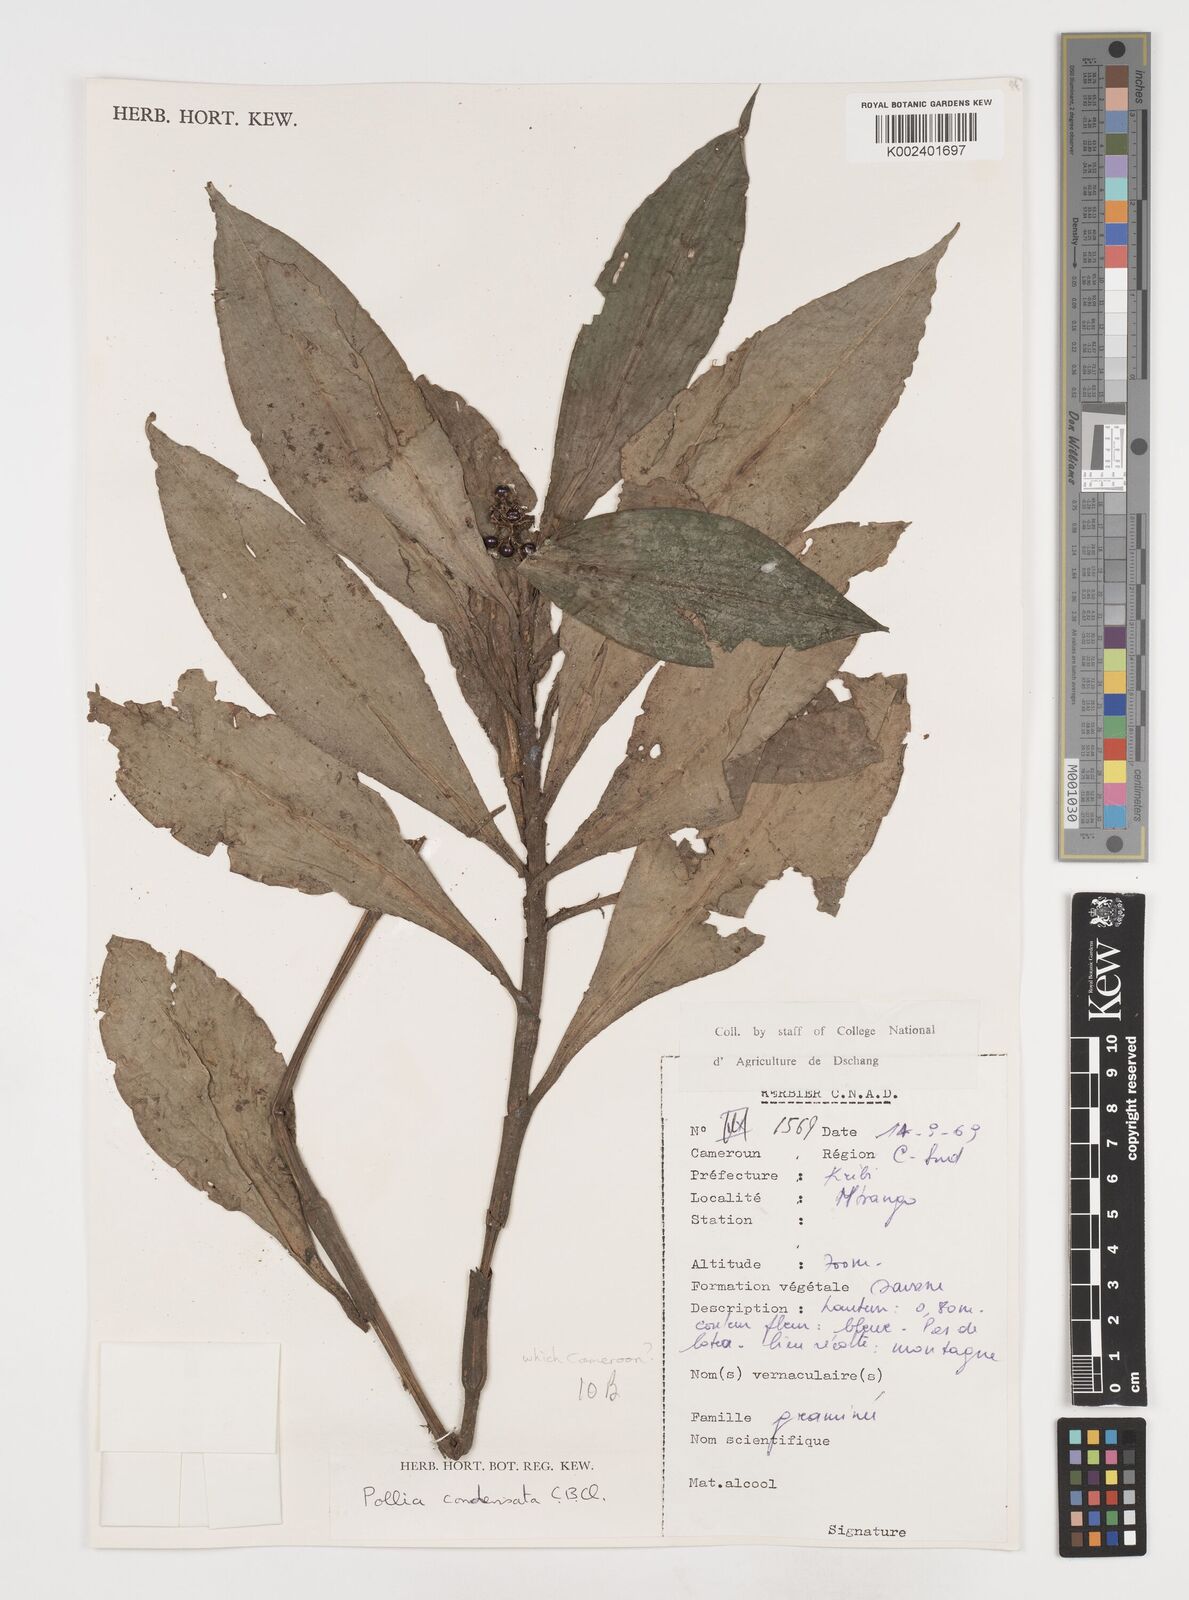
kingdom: Plantae
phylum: Tracheophyta
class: Liliopsida
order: Commelinales
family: Commelinaceae
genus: Pollia
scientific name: Pollia condensata
